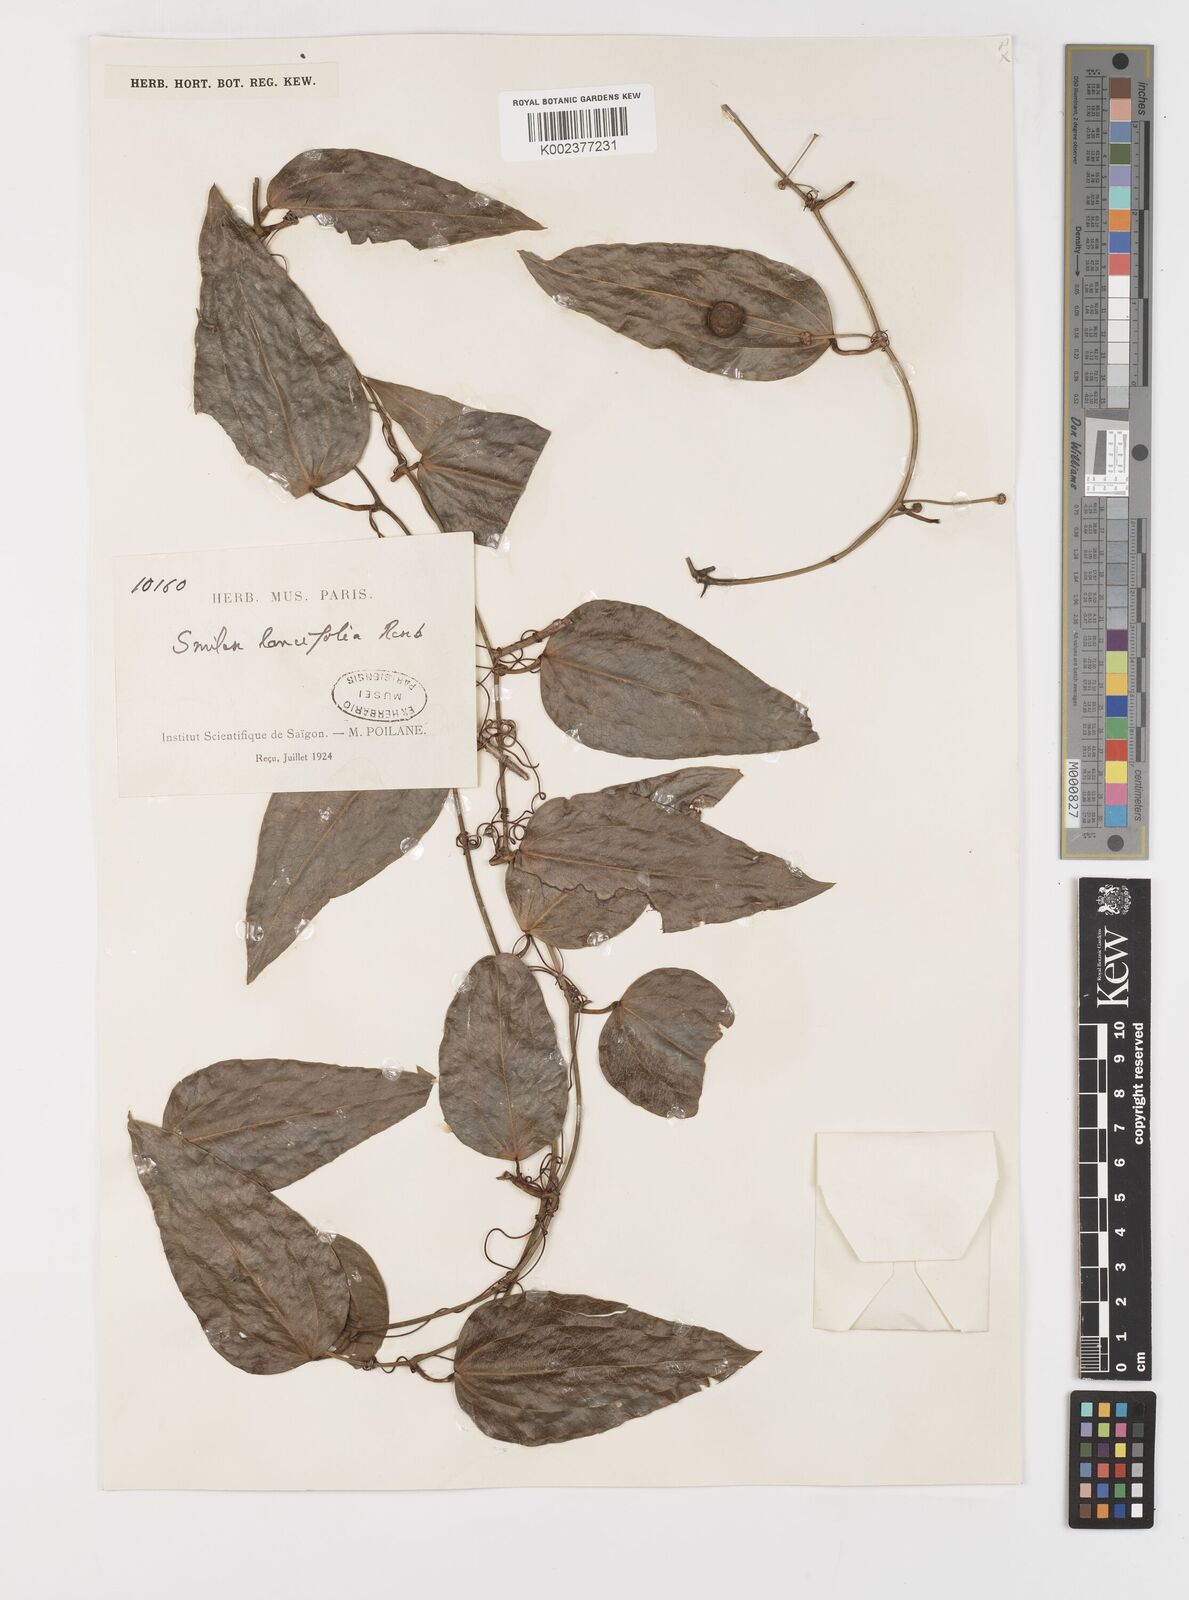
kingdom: Plantae
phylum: Tracheophyta
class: Liliopsida
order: Liliales
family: Smilacaceae
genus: Smilax
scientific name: Smilax lanceifolia
